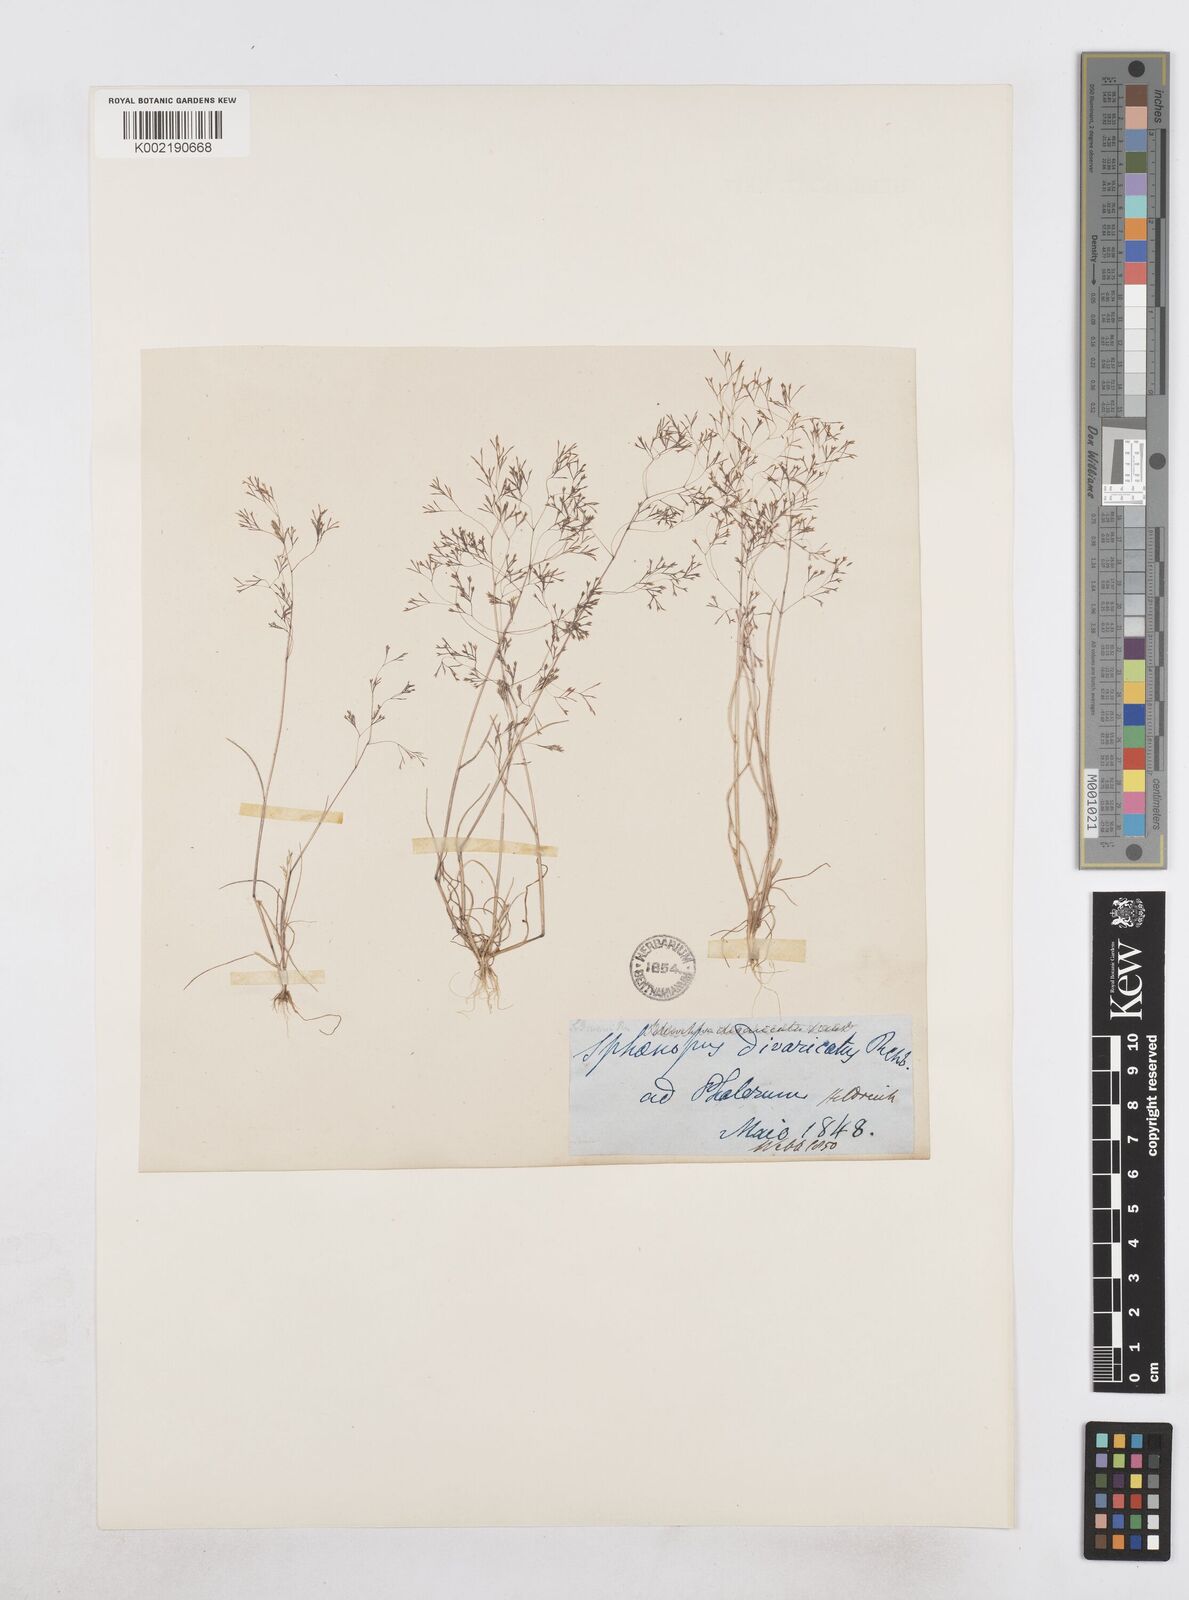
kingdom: Plantae
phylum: Tracheophyta
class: Liliopsida
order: Poales
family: Poaceae
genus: Sphenopus
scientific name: Sphenopus divaricatus
